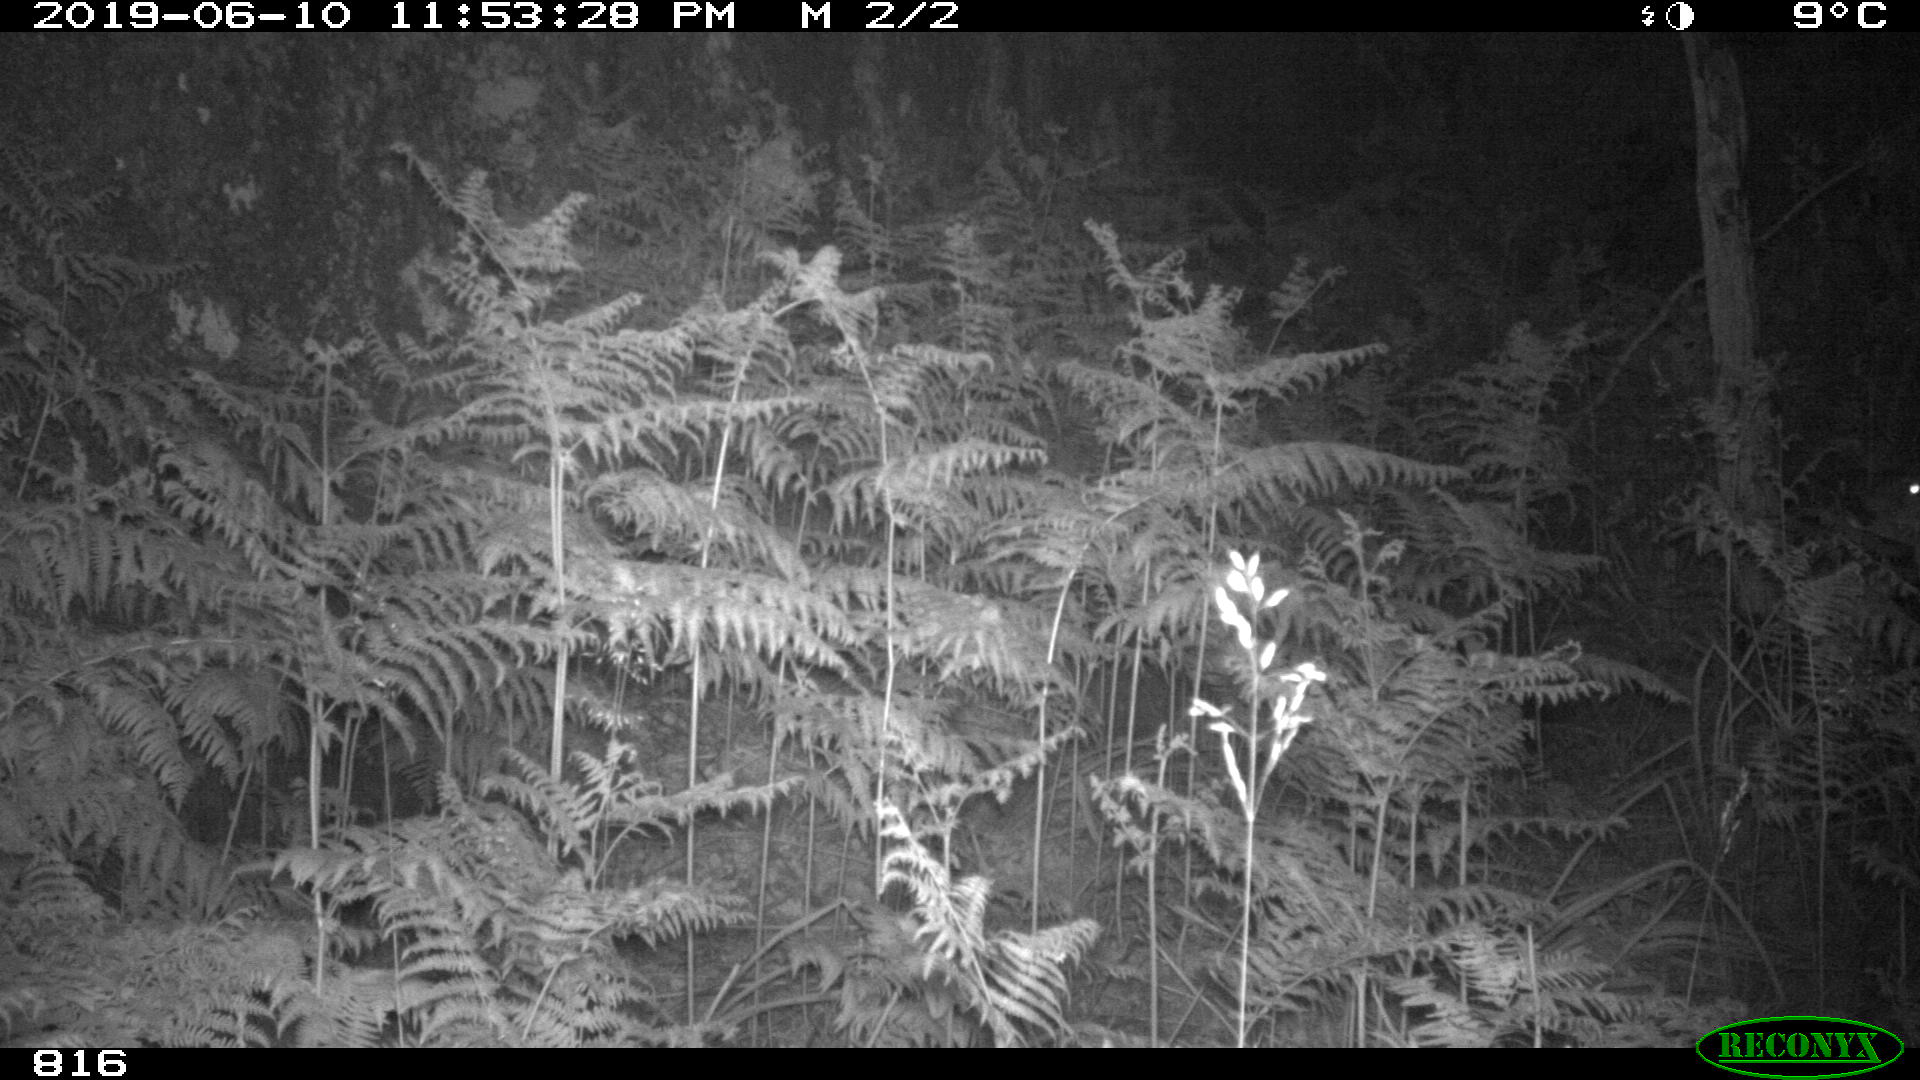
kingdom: Animalia
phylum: Chordata
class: Mammalia
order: Artiodactyla
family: Cervidae
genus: Capreolus
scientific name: Capreolus capreolus
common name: Western roe deer
